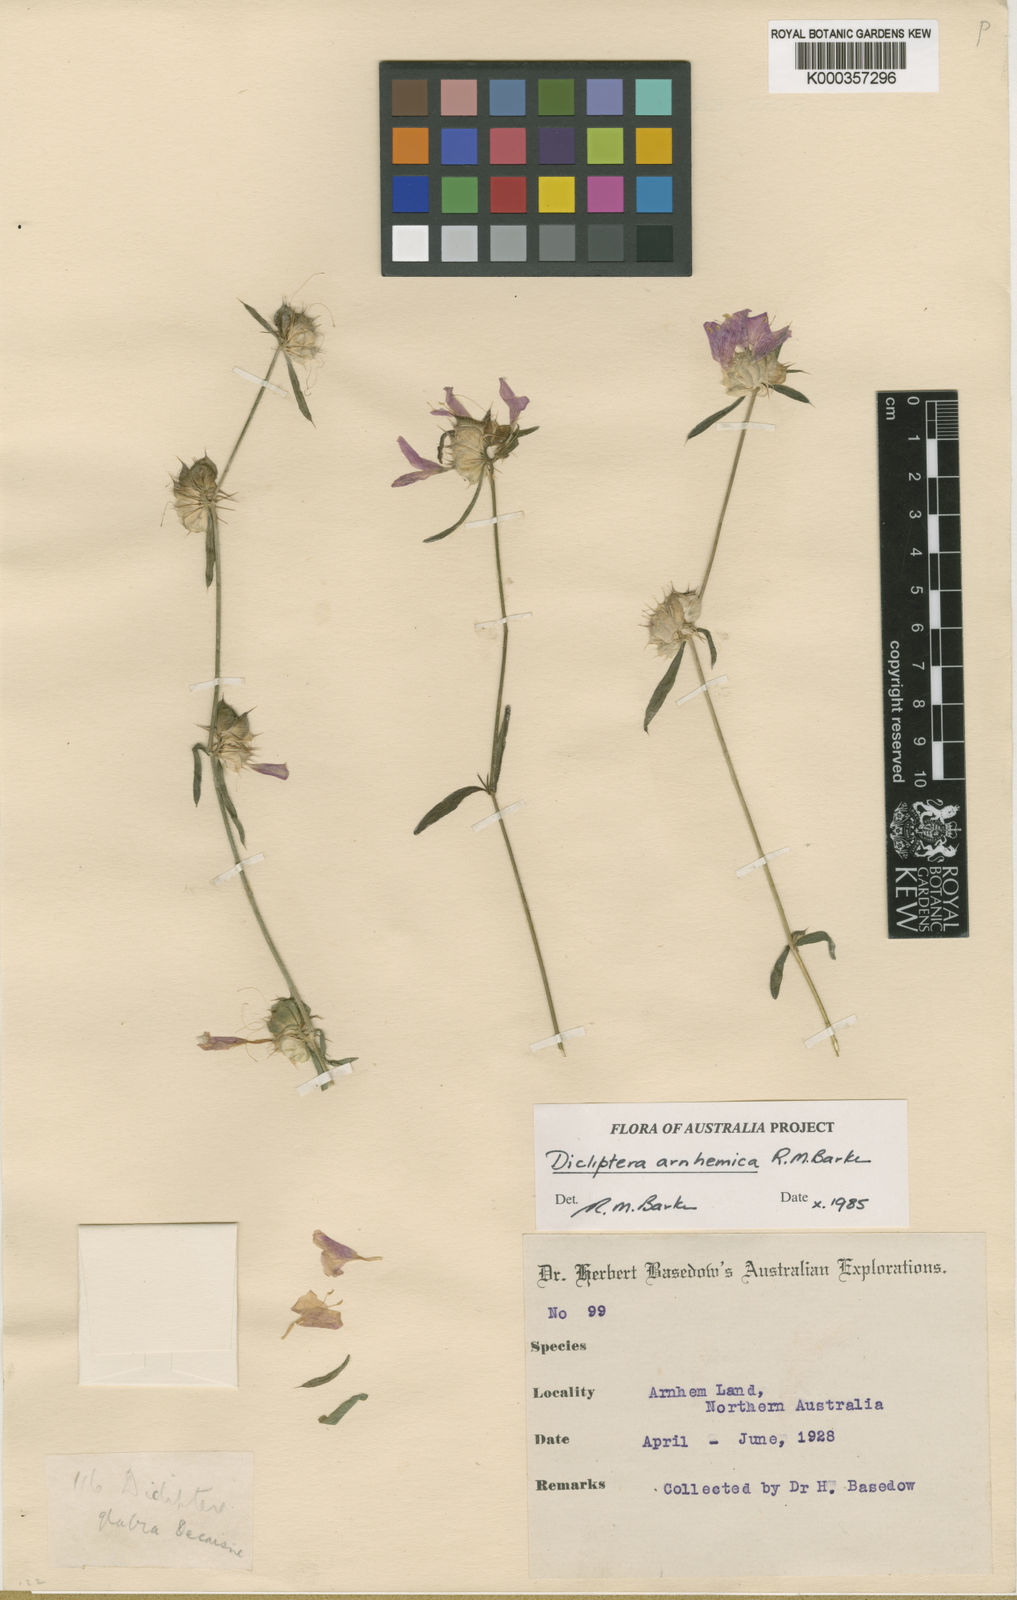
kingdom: Plantae
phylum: Tracheophyta
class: Magnoliopsida
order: Lamiales
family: Acanthaceae
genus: Dicliptera
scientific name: Dicliptera arnhemica
